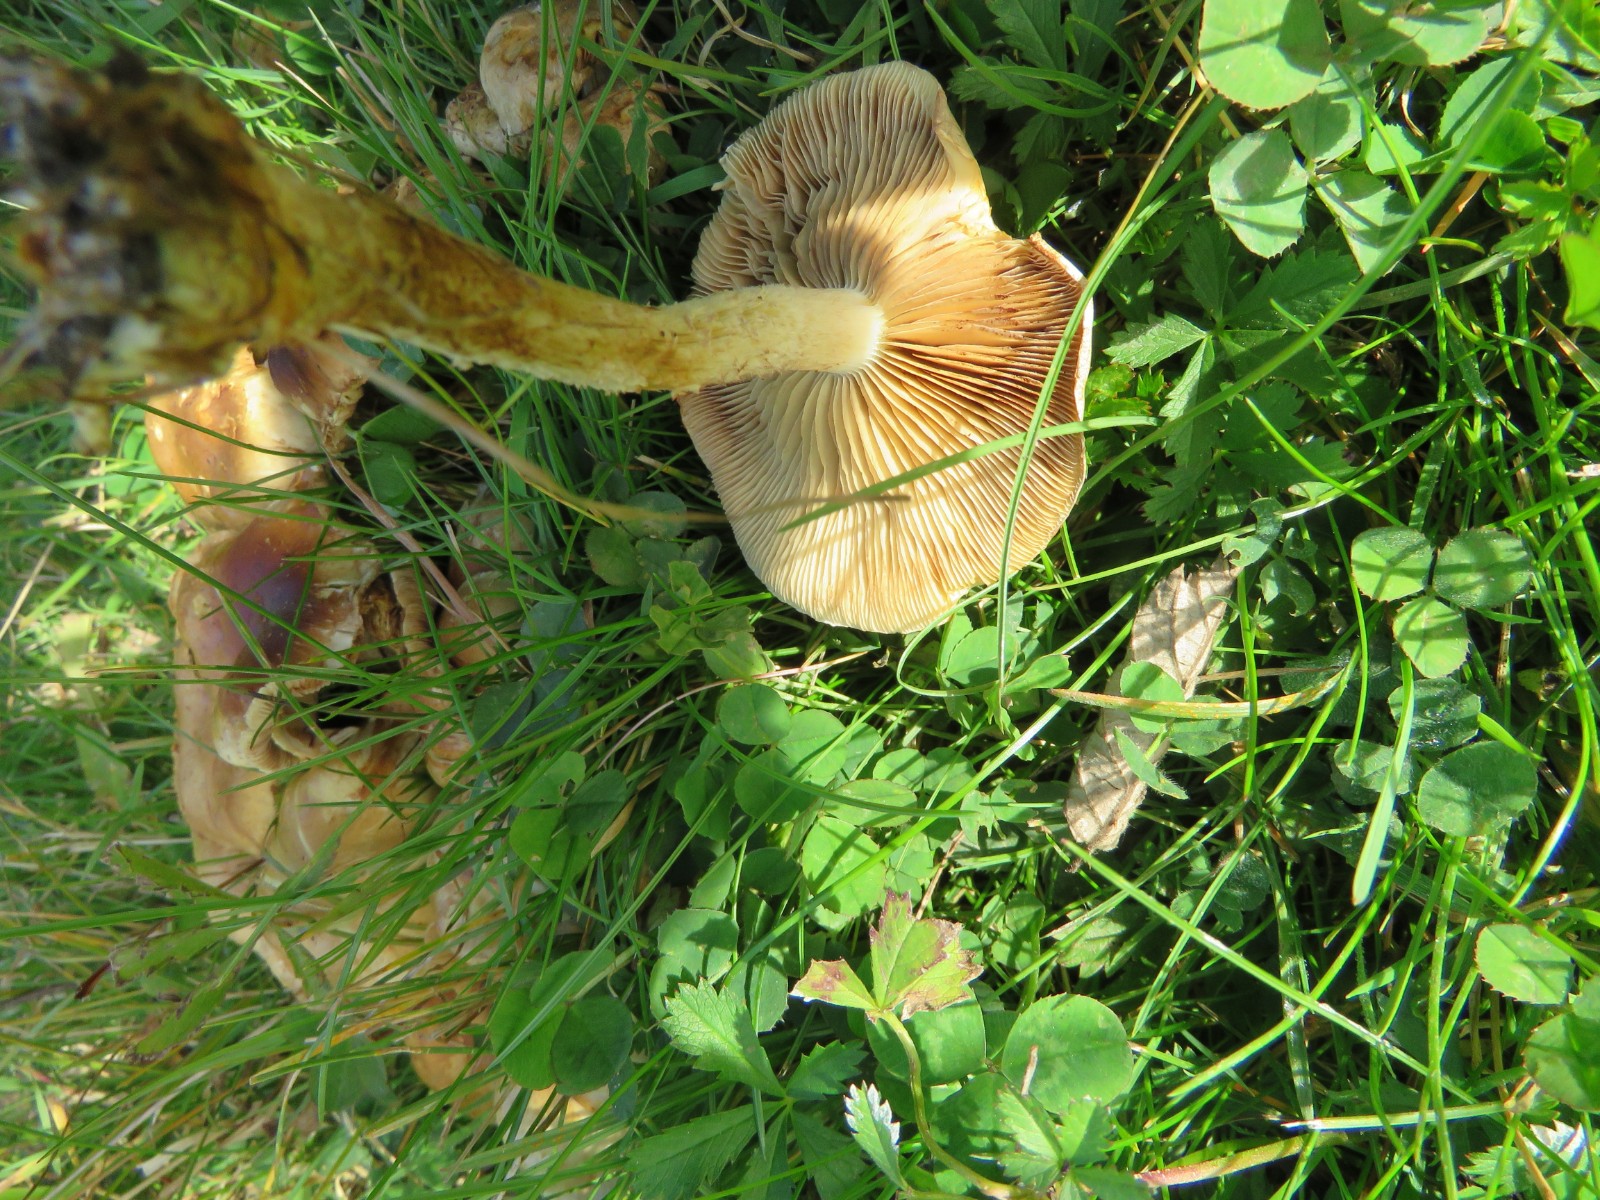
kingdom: Fungi
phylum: Basidiomycota
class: Agaricomycetes
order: Agaricales
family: Strophariaceae
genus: Pholiota
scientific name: Pholiota gummosa
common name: grøngul skælhat
